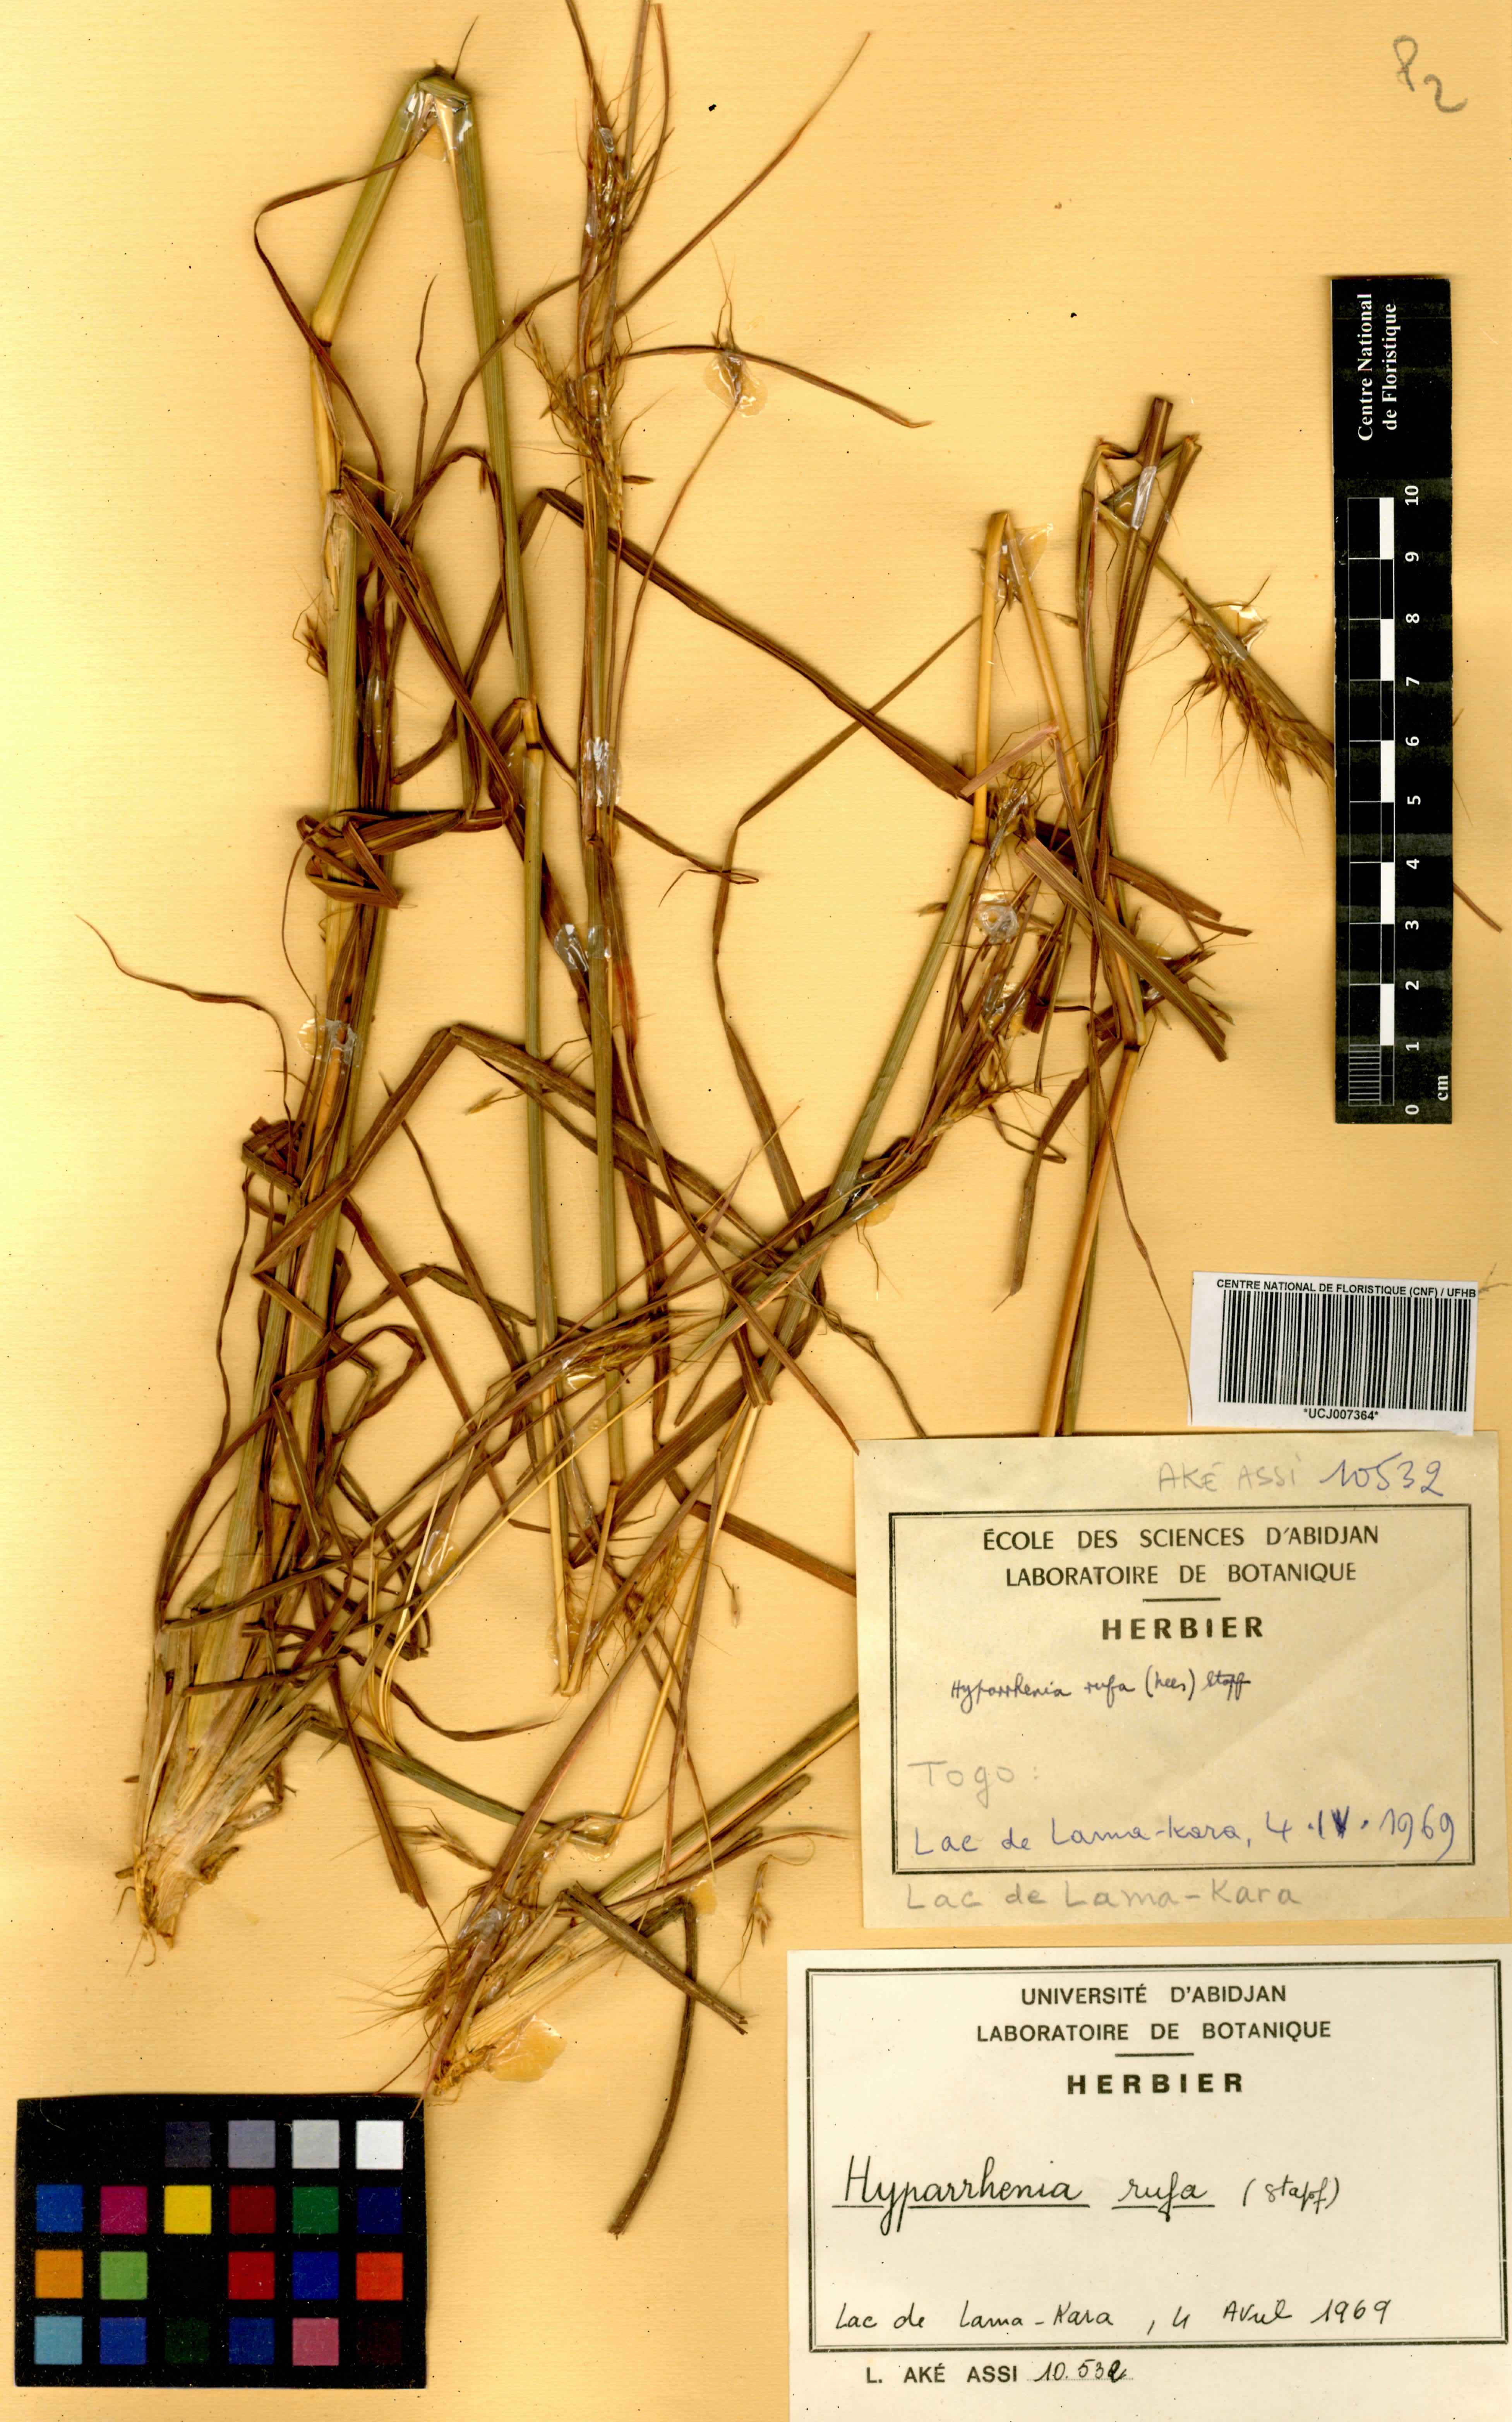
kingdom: Plantae
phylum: Tracheophyta
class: Liliopsida
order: Poales
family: Poaceae
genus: Hyparrhenia
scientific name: Hyparrhenia rufa
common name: Jaraguagrass
